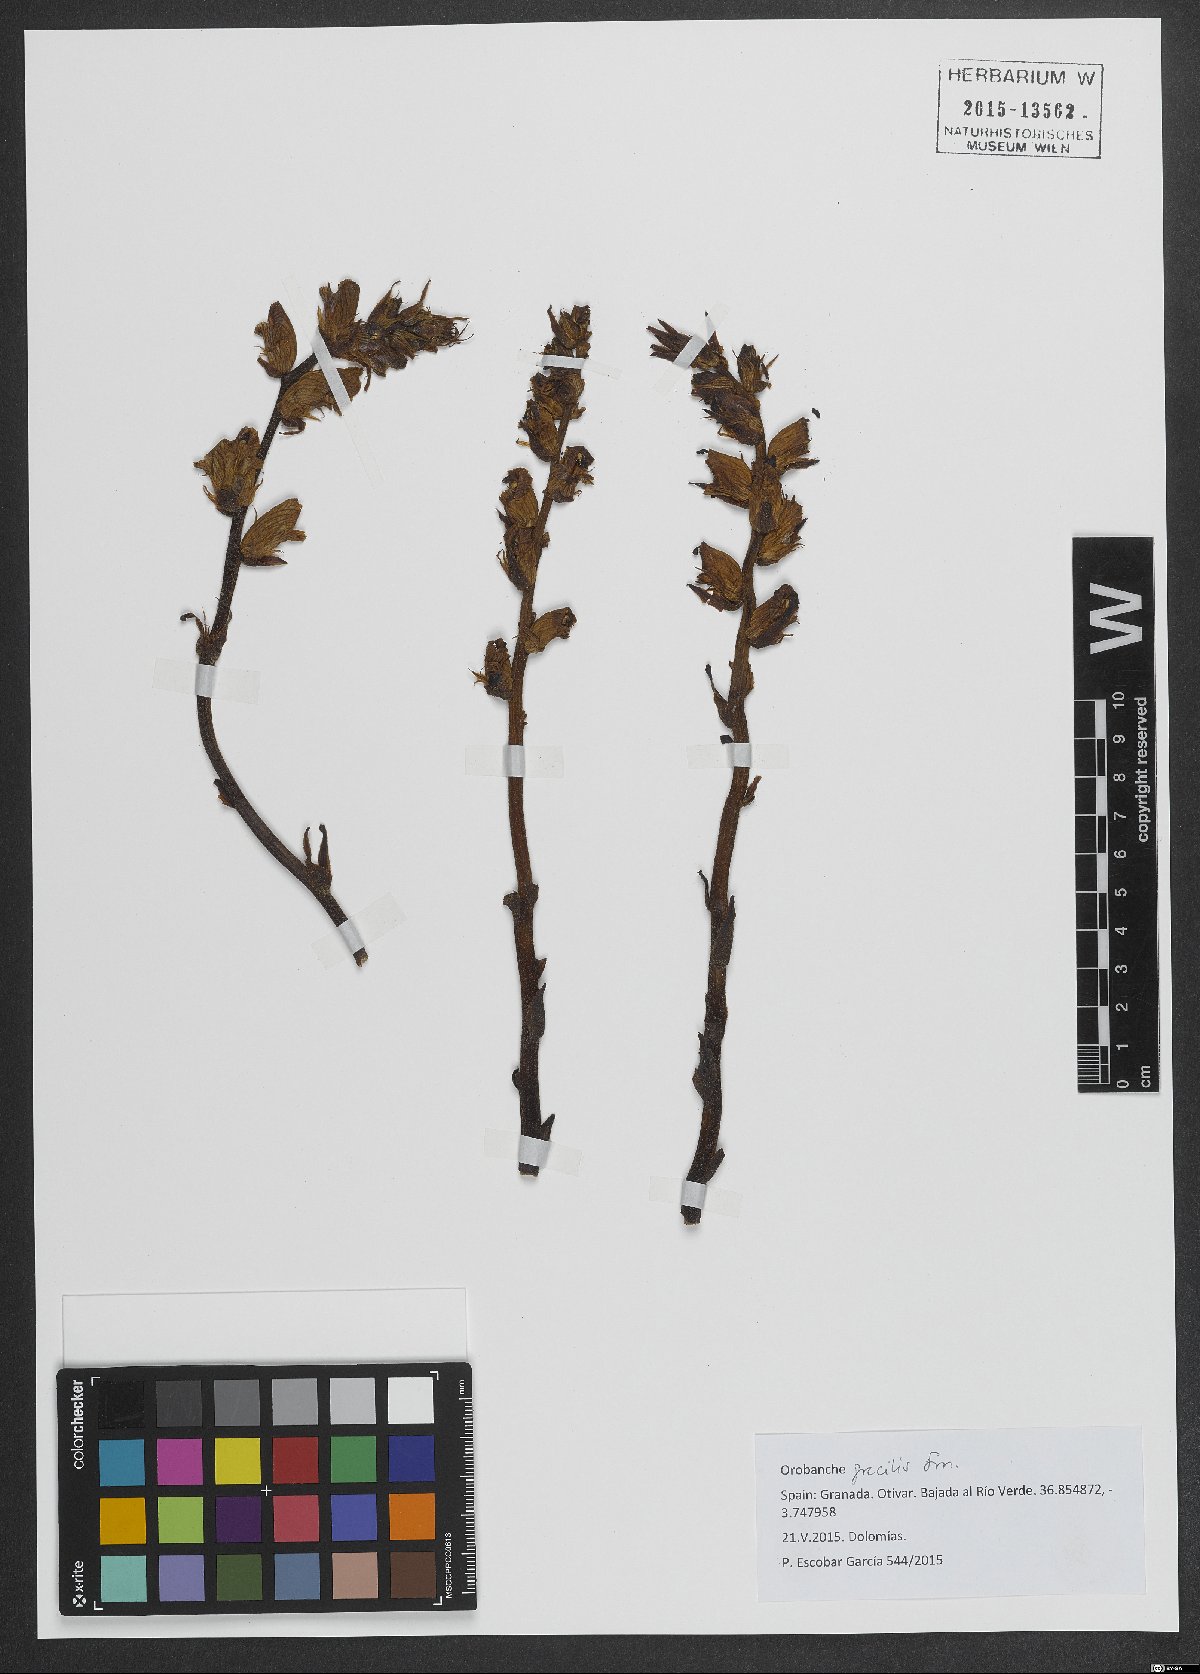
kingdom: Plantae
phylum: Tracheophyta
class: Magnoliopsida
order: Lamiales
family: Orobanchaceae
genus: Orobanche
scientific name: Orobanche gracilis
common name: Slender broomrape
